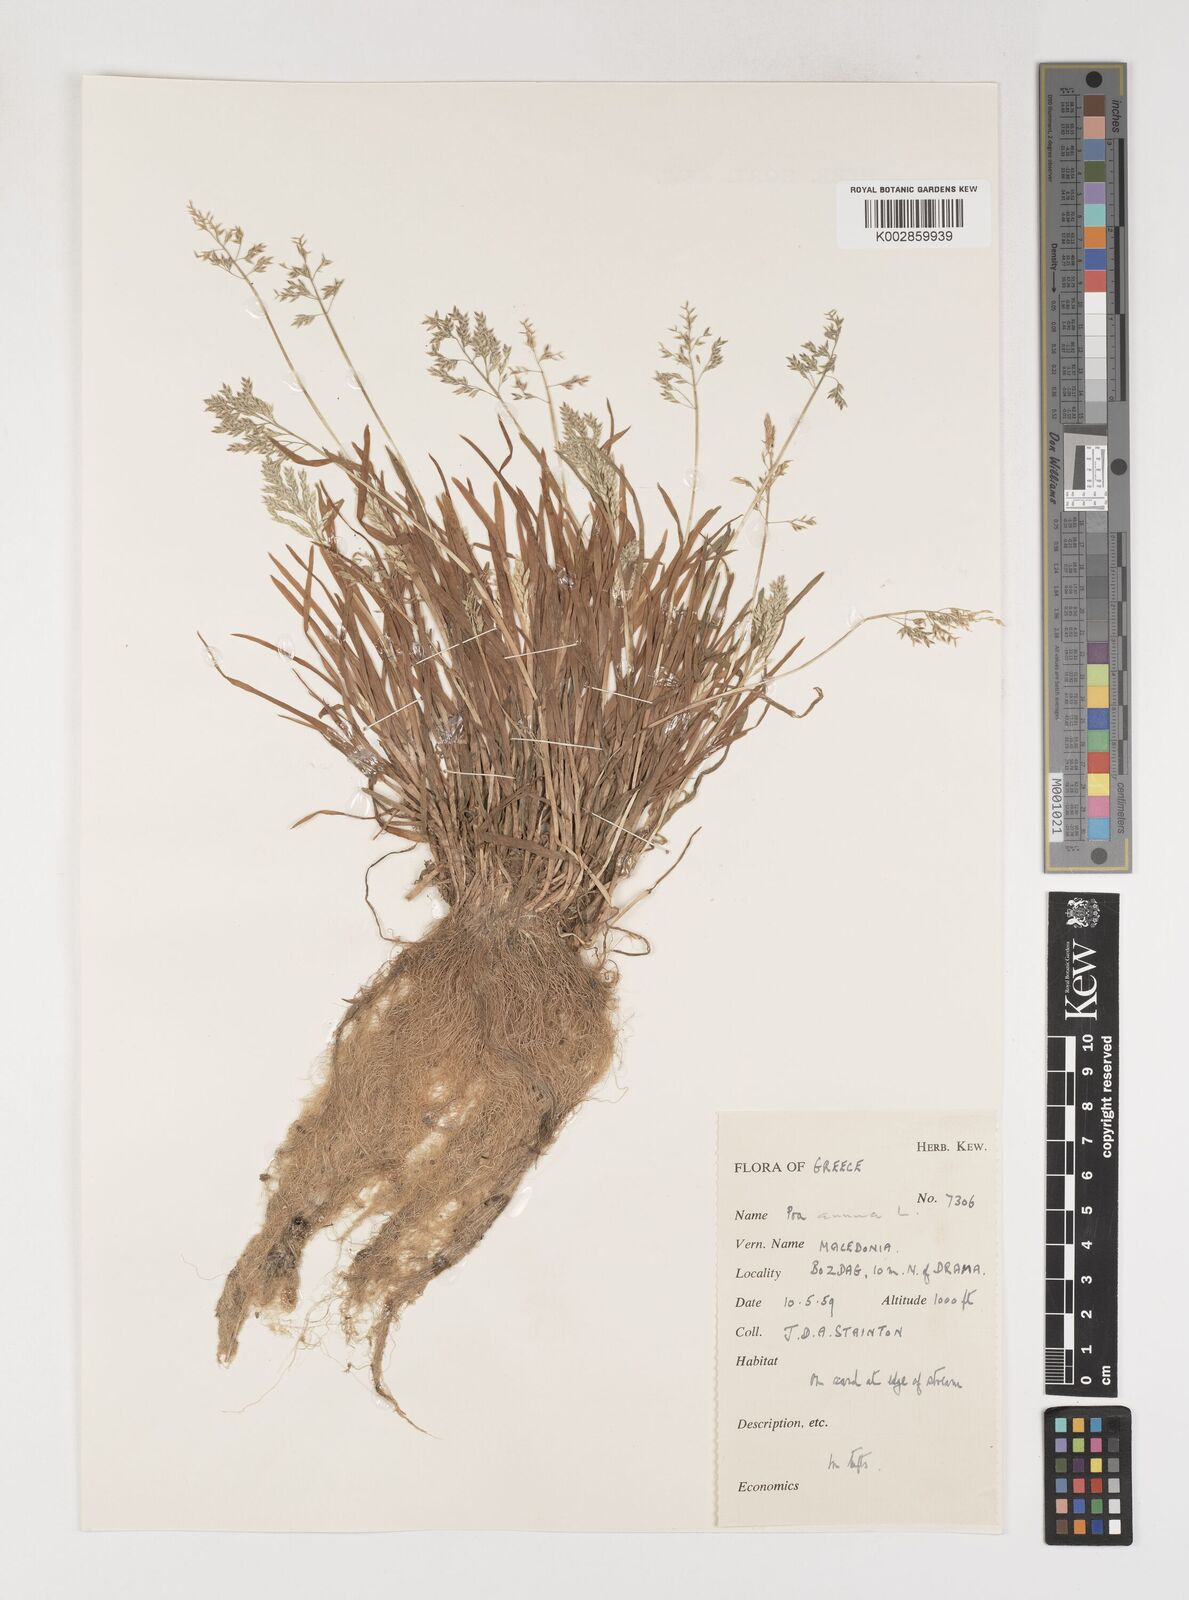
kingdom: Plantae
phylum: Tracheophyta
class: Liliopsida
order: Poales
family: Poaceae
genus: Poa
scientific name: Poa annua
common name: Annual bluegrass
